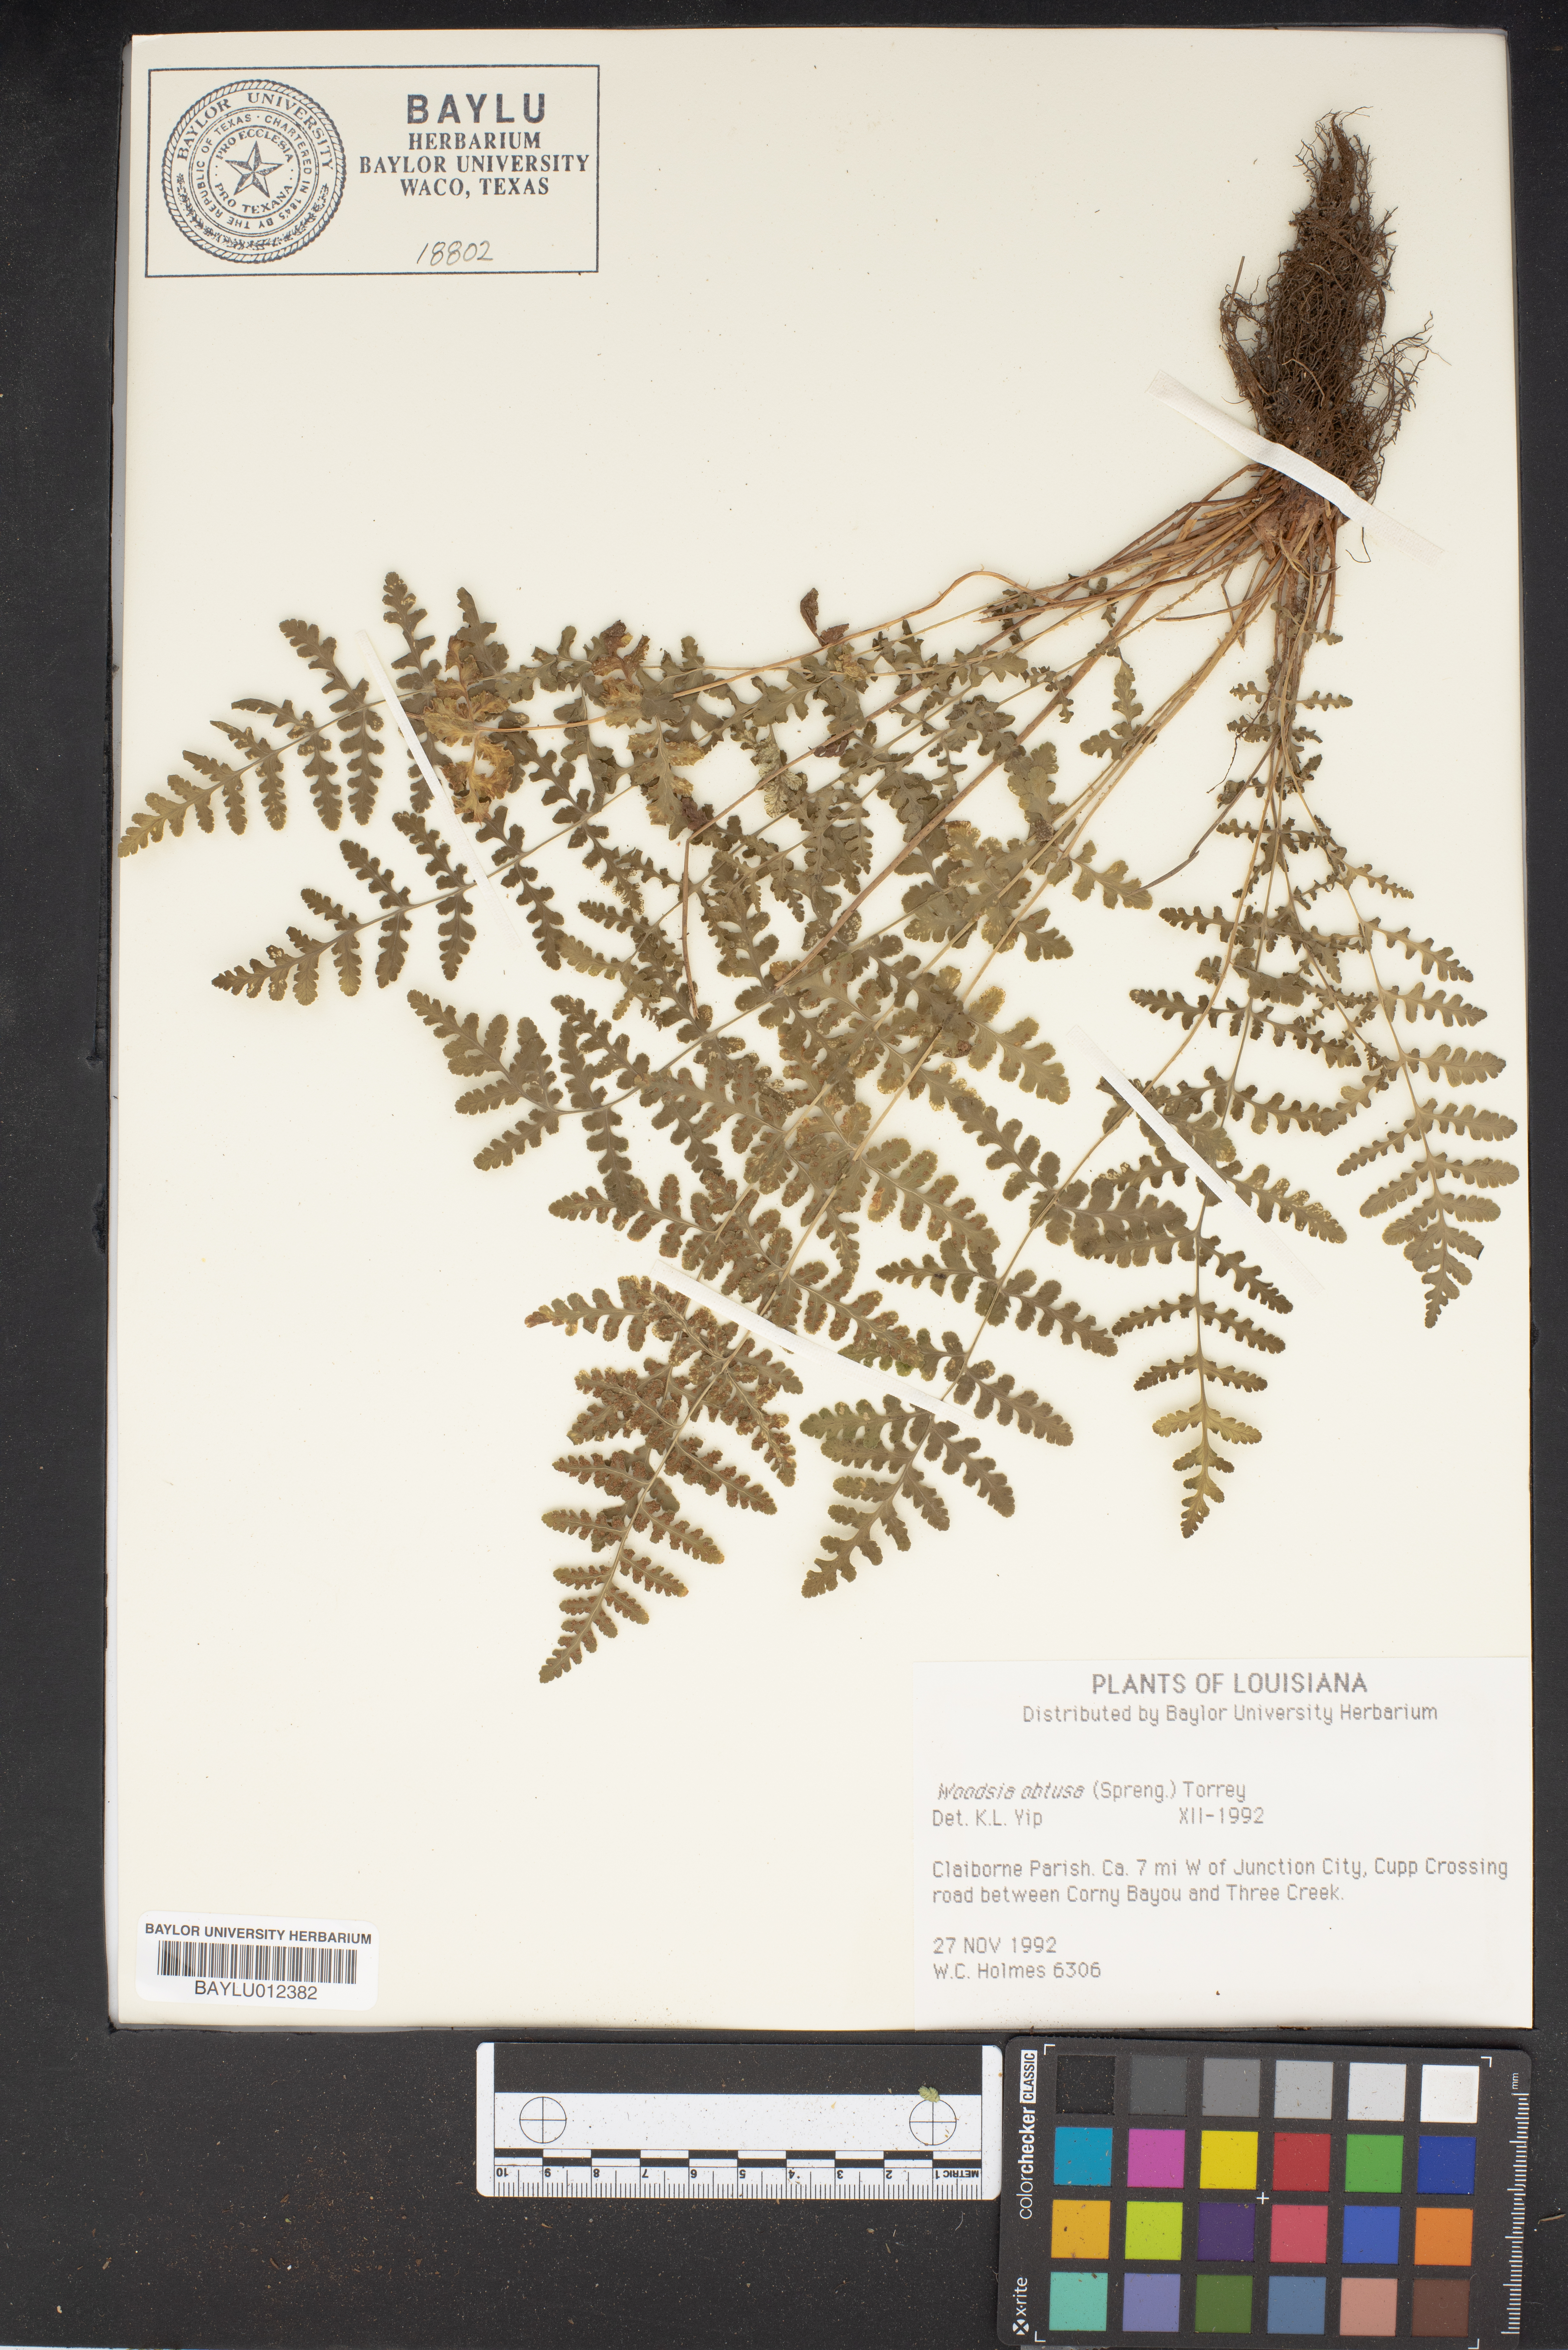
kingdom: Plantae
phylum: Tracheophyta
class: Polypodiopsida
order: Polypodiales
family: Woodsiaceae
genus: Physematium
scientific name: Physematium obtusum
